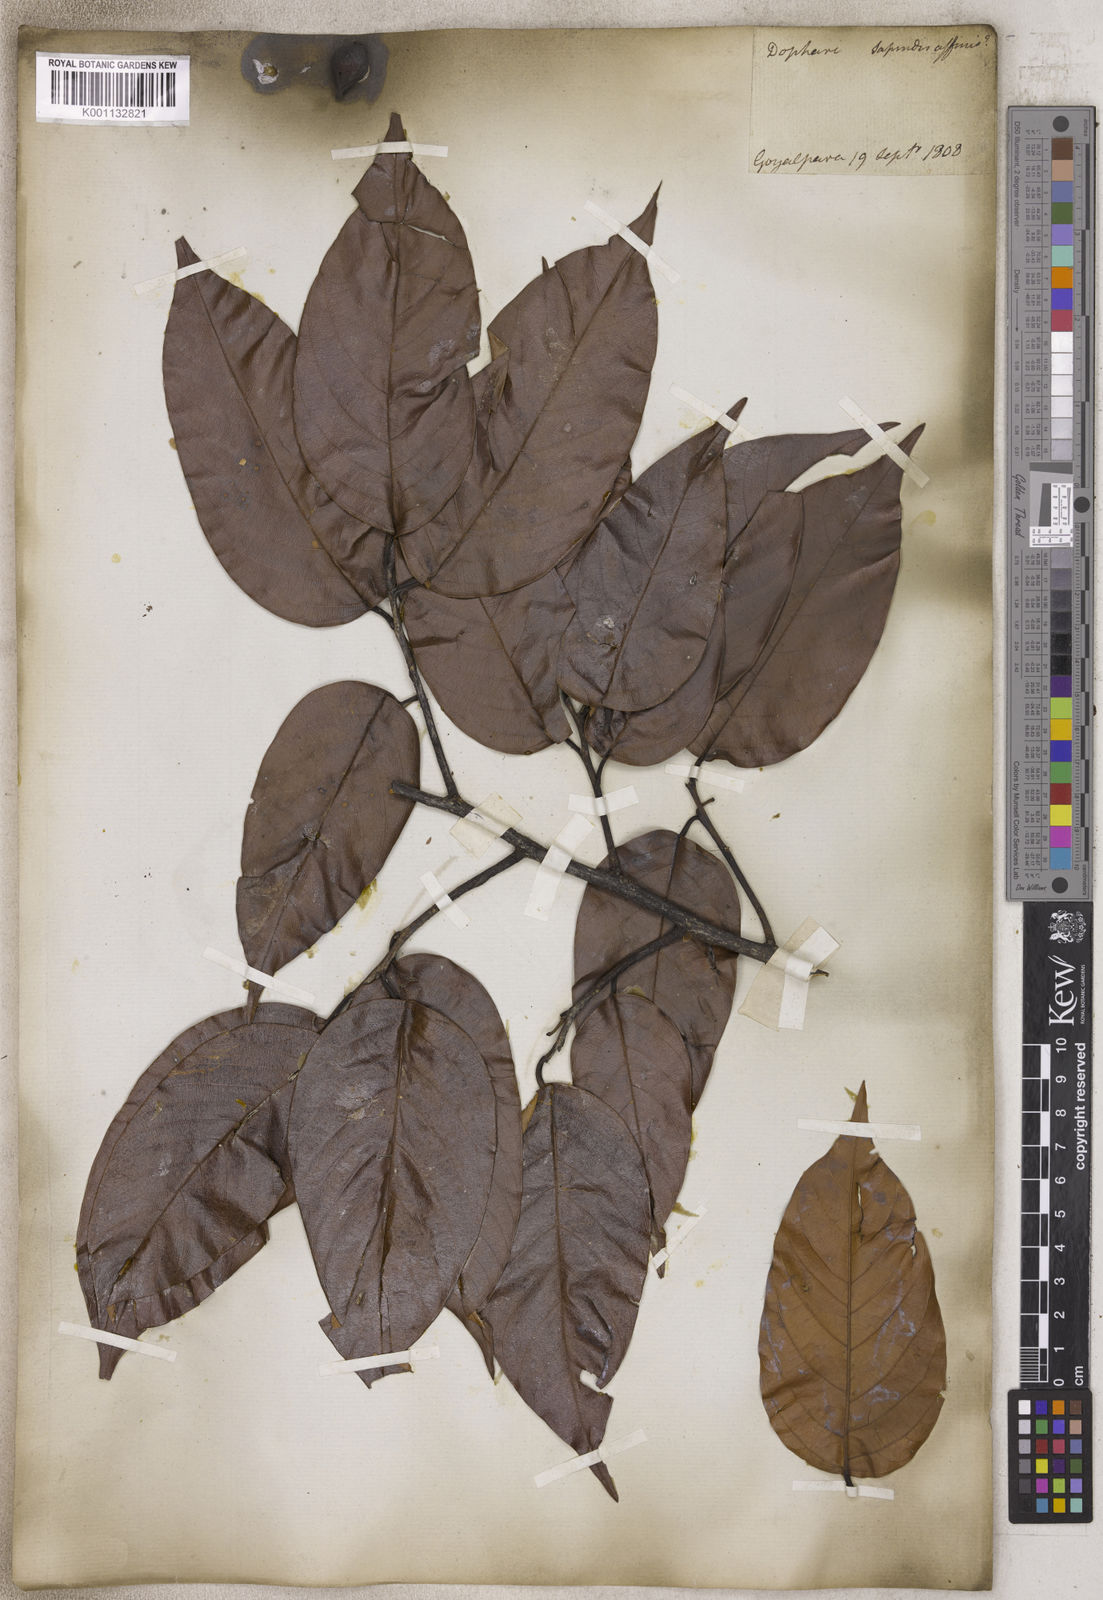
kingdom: Plantae
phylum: Tracheophyta
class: Magnoliopsida
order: Sapindales
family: Sapindaceae
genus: Sapindus
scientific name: Sapindus
